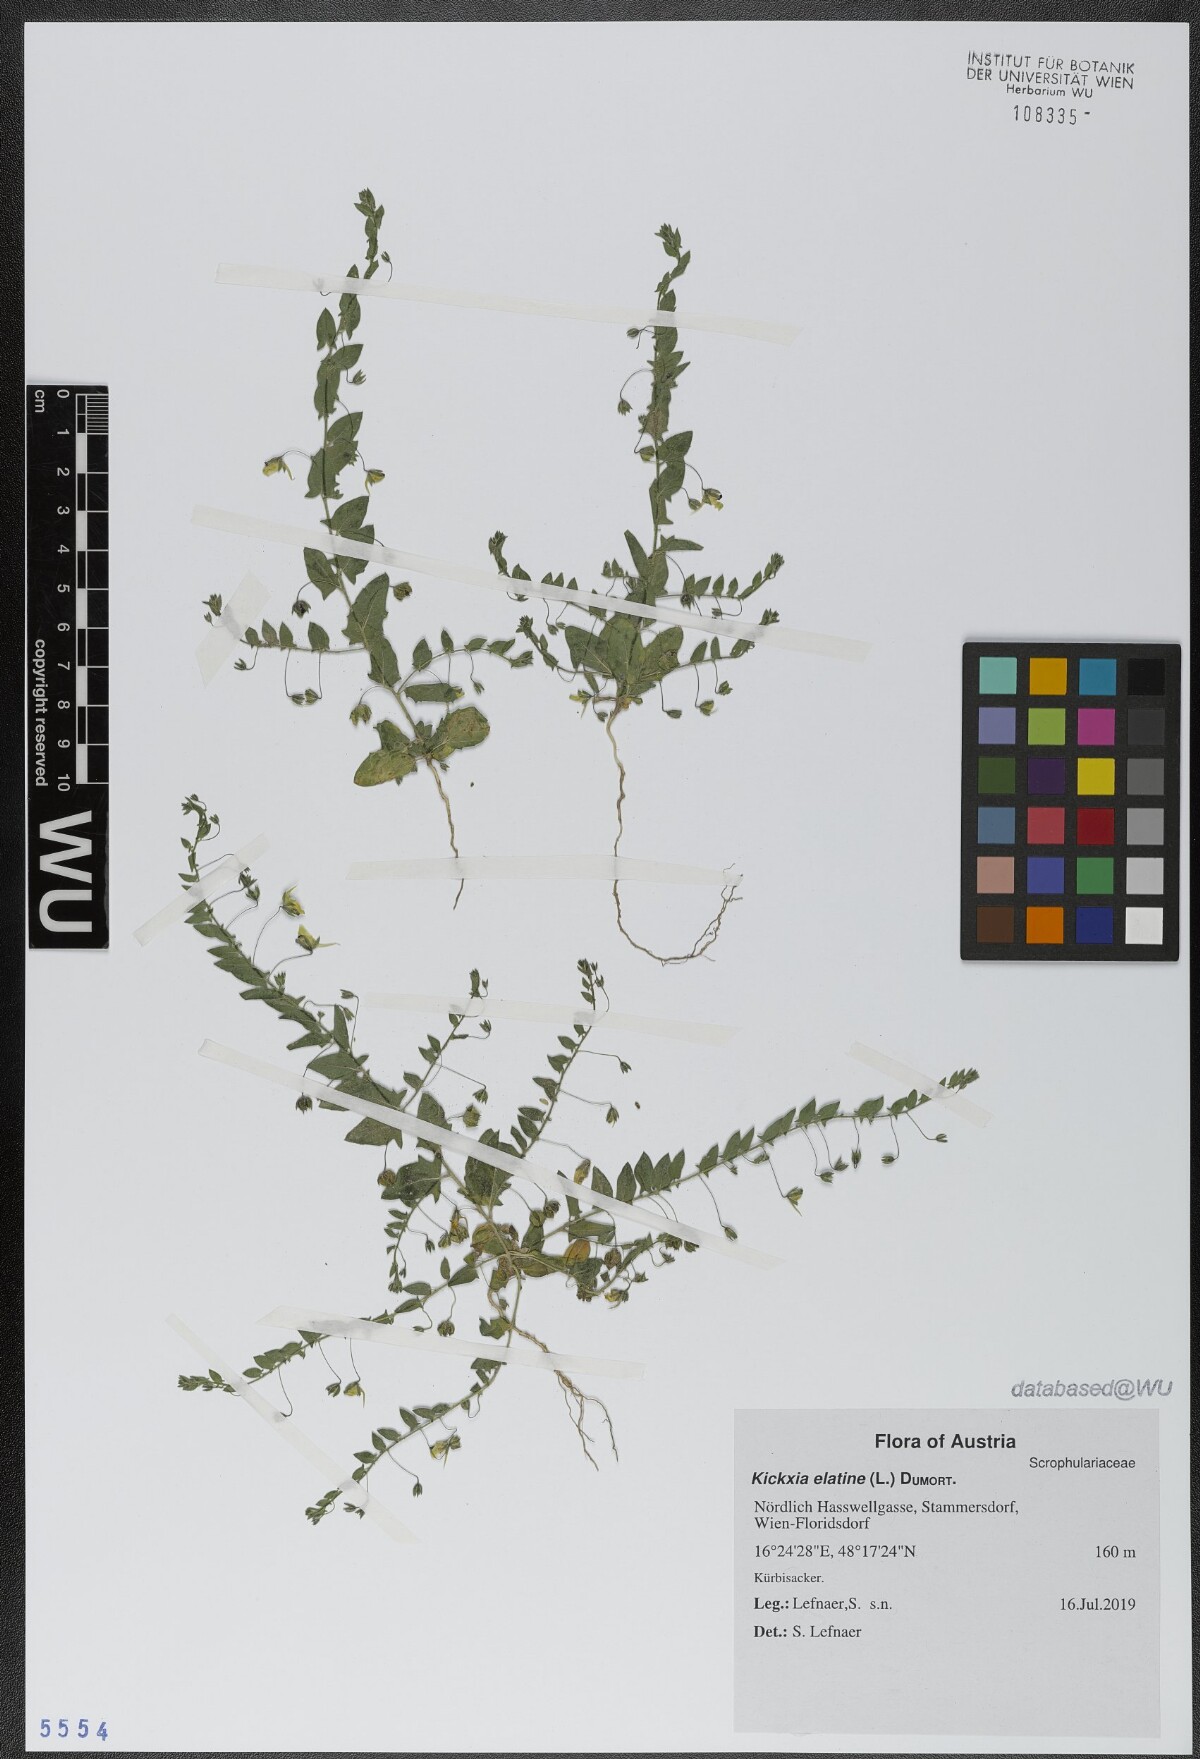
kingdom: Plantae
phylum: Tracheophyta
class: Magnoliopsida
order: Lamiales
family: Plantaginaceae
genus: Kickxia
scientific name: Kickxia elatine
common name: Sharp-leaved fluellen
